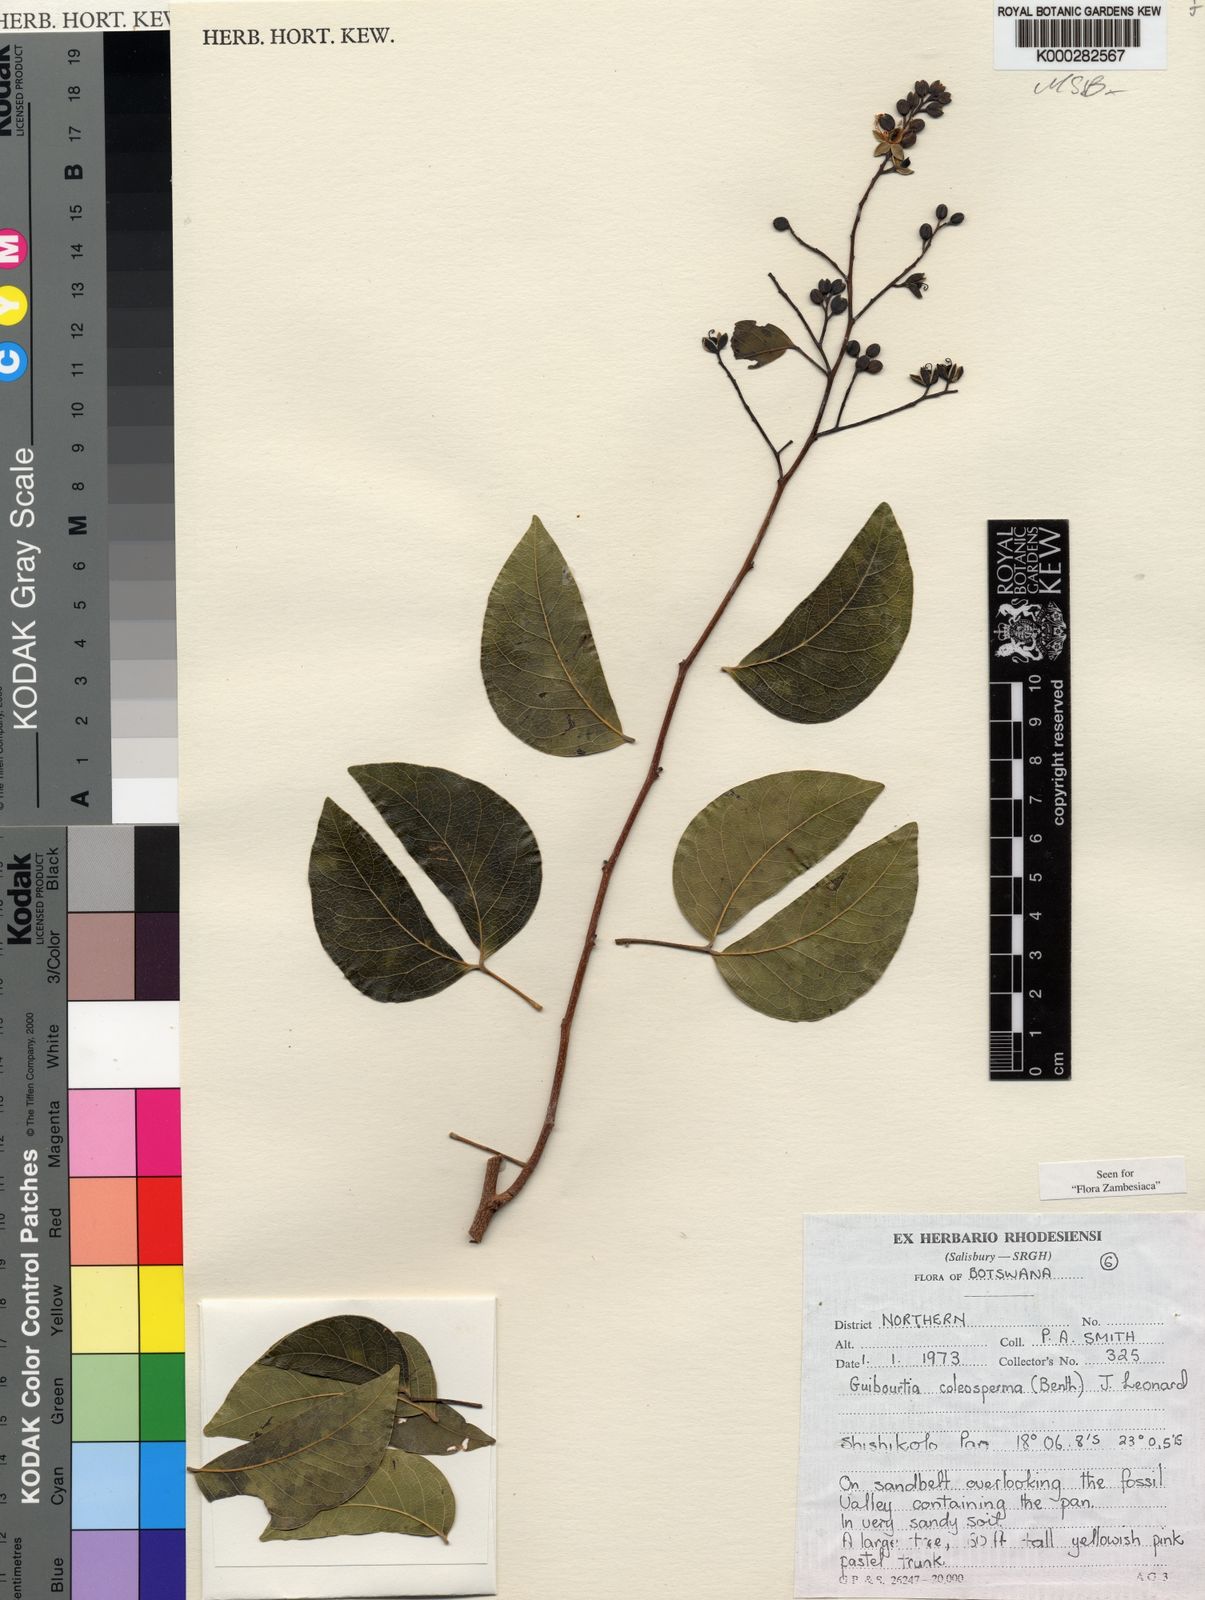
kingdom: Plantae
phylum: Tracheophyta
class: Magnoliopsida
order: Fabales
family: Fabaceae
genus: Guibourtia
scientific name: Guibourtia coleosperma
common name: African rosewoood
